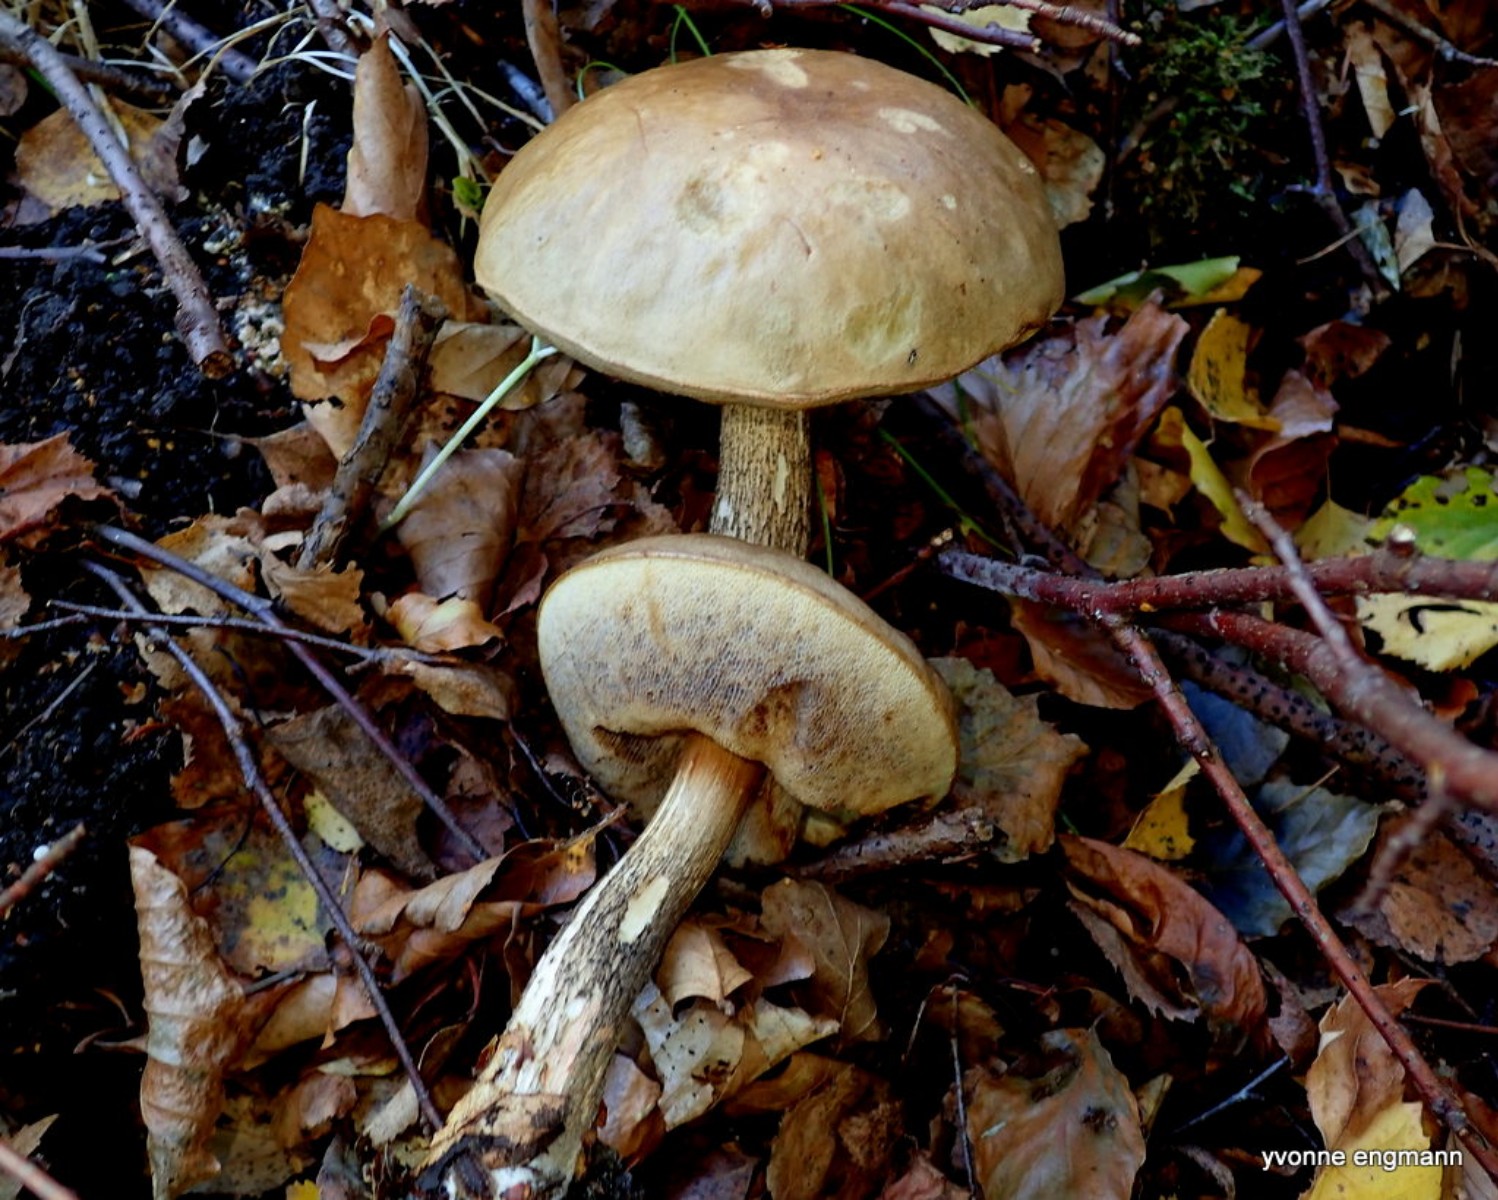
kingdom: Fungi
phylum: Basidiomycota
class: Agaricomycetes
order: Boletales
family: Boletaceae
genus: Leccinum
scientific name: Leccinum
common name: skælrørhat
